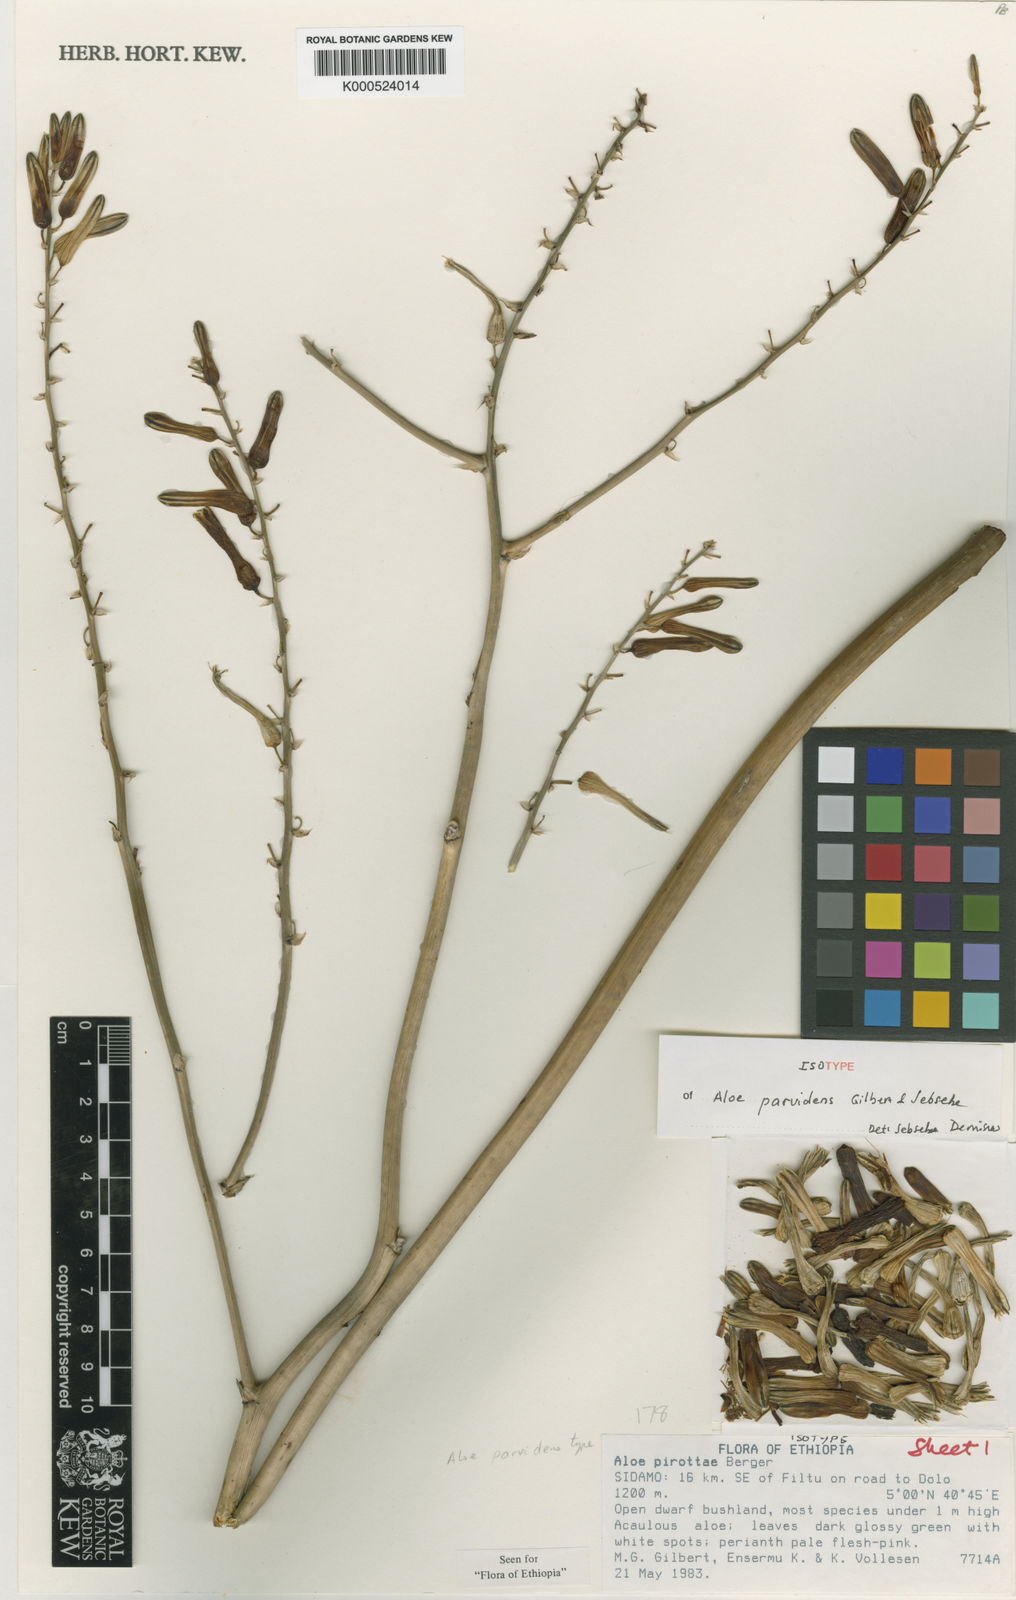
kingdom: Plantae
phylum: Tracheophyta
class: Liliopsida
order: Asparagales
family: Asphodelaceae
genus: Aloe
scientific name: Aloe parvidens
